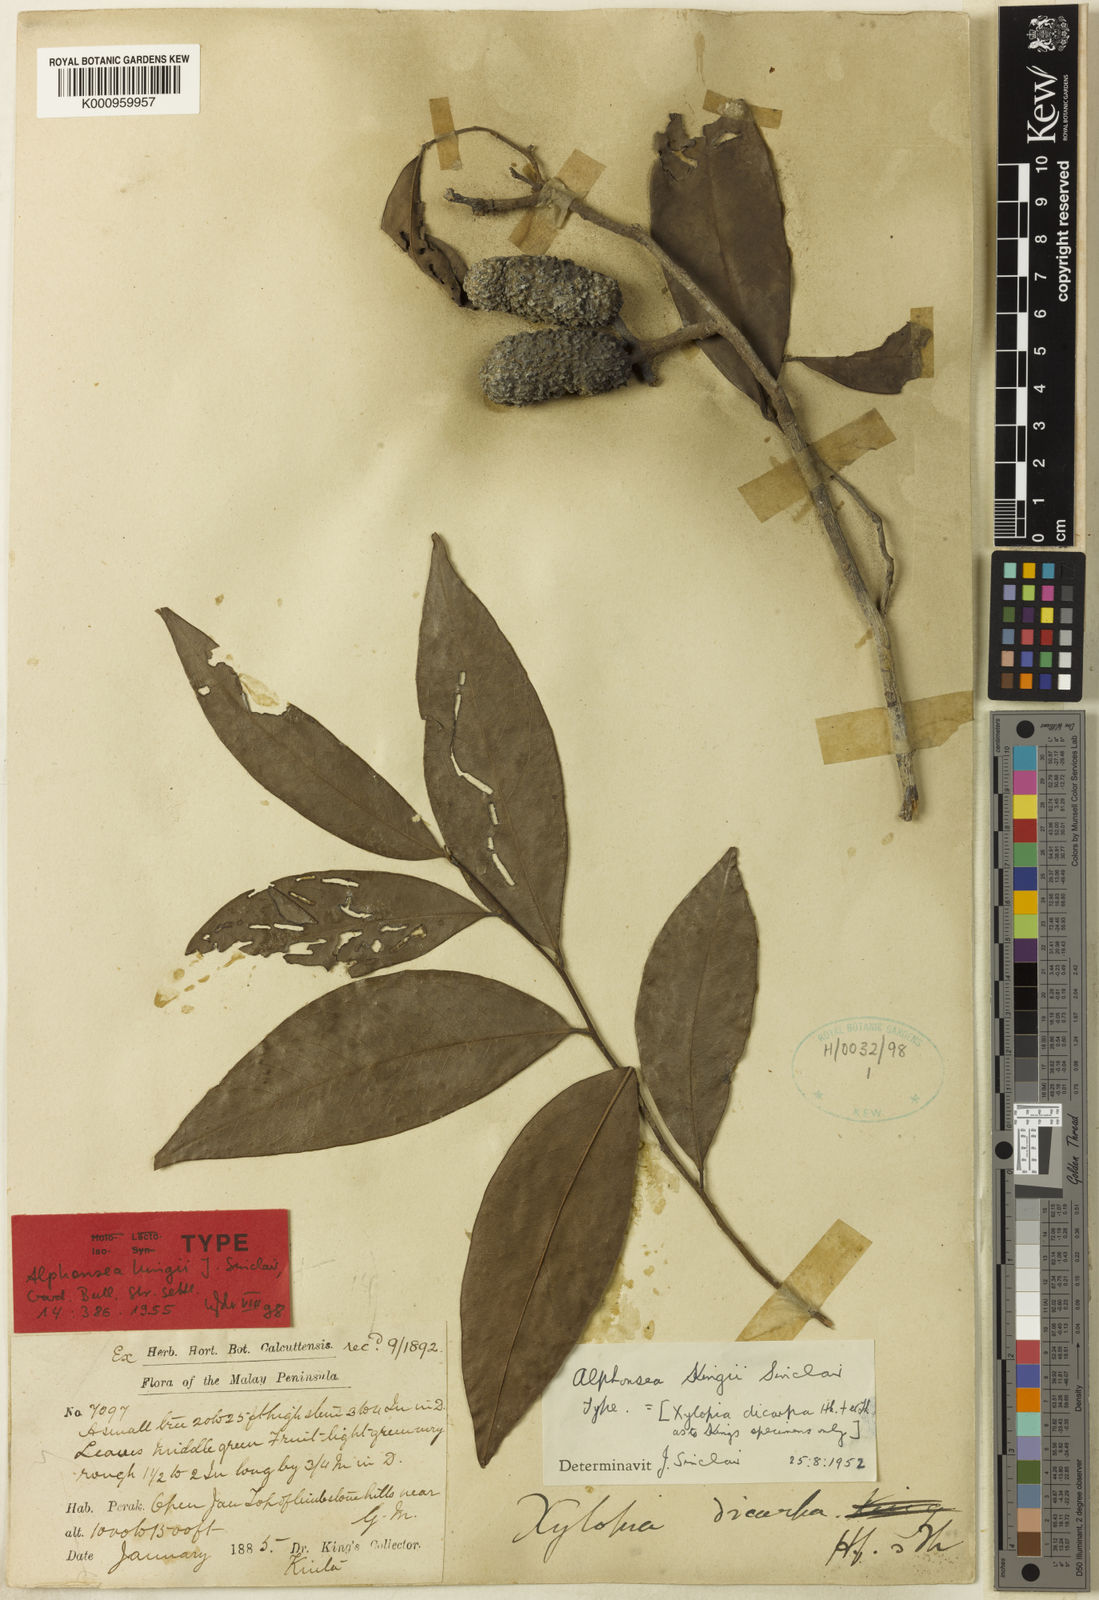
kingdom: Plantae
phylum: Tracheophyta
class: Magnoliopsida
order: Magnoliales
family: Annonaceae
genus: Alphonsea
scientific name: Alphonsea kingii
